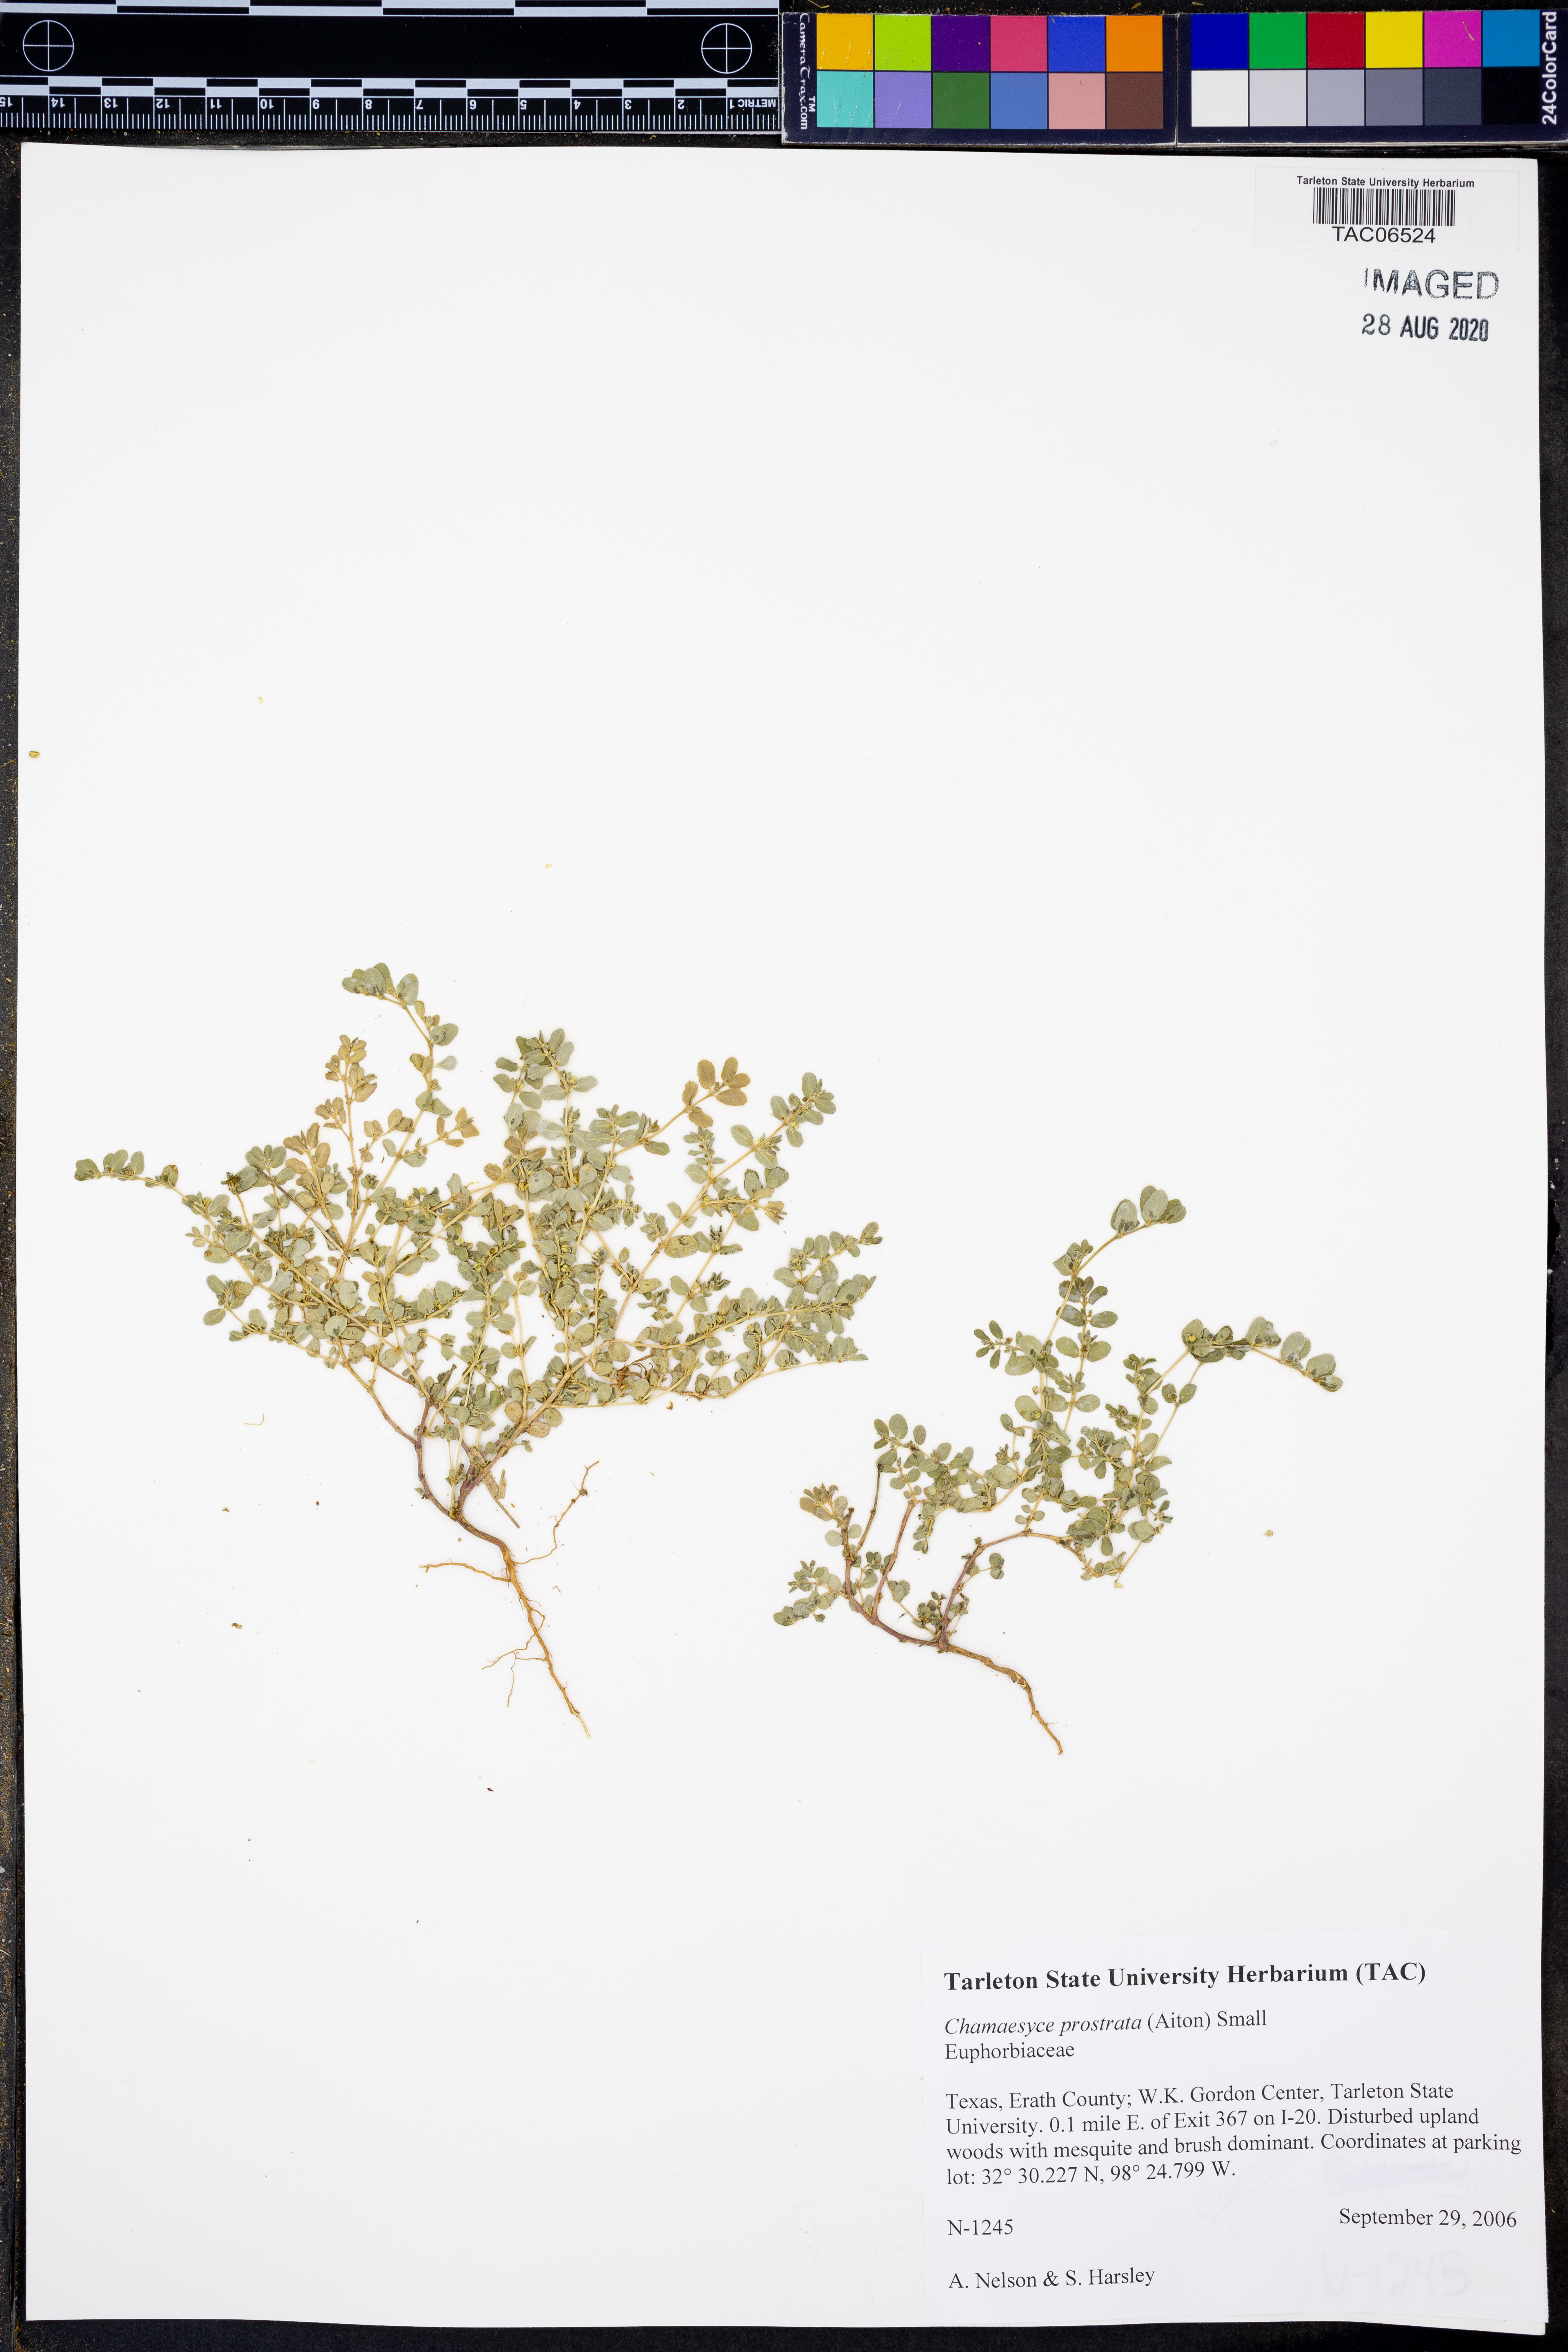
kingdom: Plantae
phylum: Tracheophyta
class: Magnoliopsida
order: Malpighiales
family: Euphorbiaceae
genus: Euphorbia
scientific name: Euphorbia prostrata
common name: Prostrate sandmat
